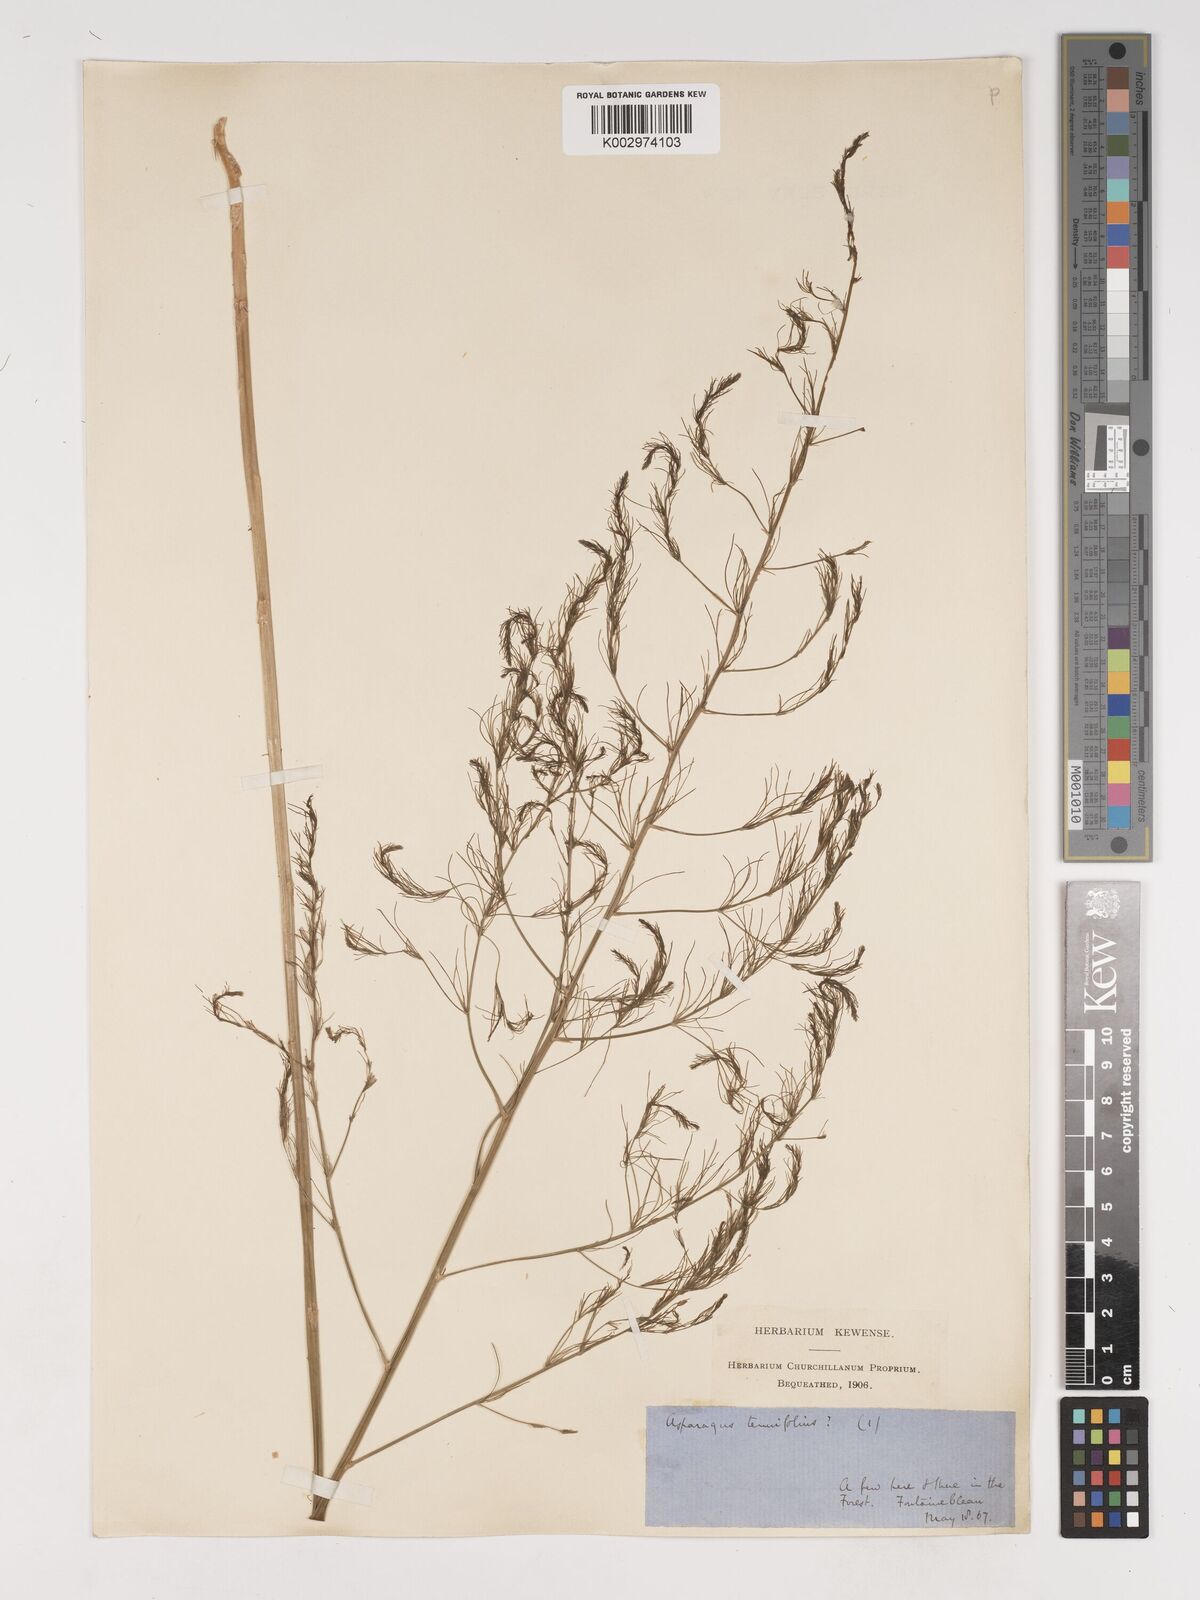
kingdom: Plantae
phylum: Tracheophyta
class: Liliopsida
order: Asparagales
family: Asparagaceae
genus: Asparagus
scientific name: Asparagus tenuifolius
